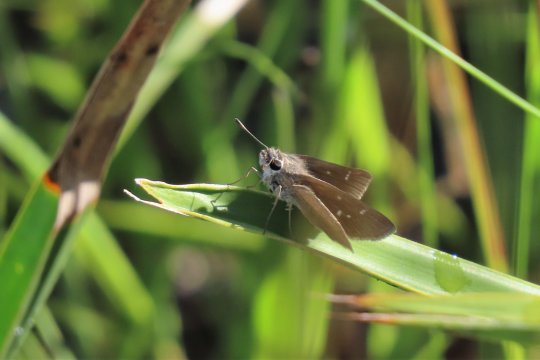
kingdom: Animalia
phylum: Arthropoda
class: Insecta
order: Lepidoptera
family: Hesperiidae
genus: Lerodea
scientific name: Lerodea eufala
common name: Eufala Skipper
